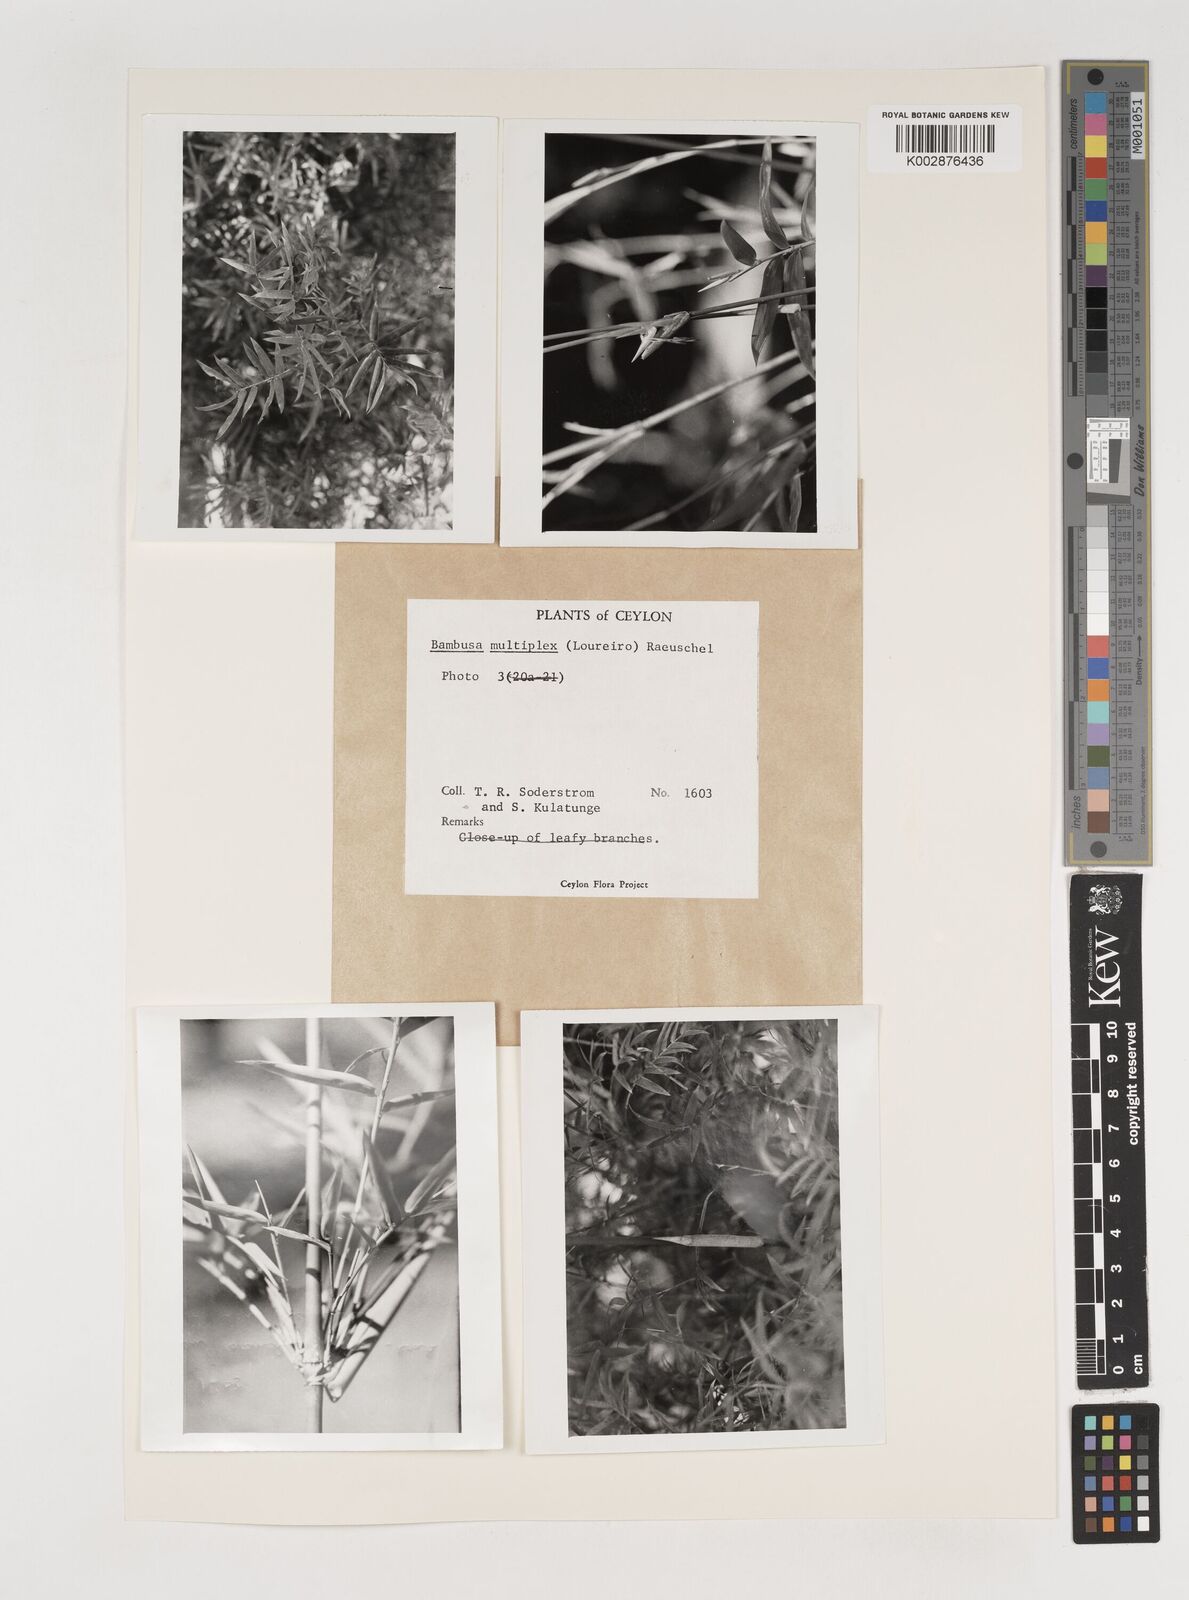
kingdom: Plantae
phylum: Tracheophyta
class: Liliopsida
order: Poales
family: Poaceae
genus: Bambusa
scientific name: Bambusa multiplex
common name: Hedge bamboo
